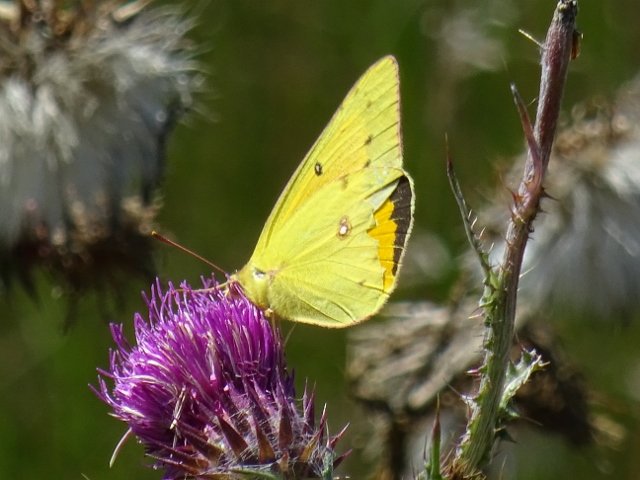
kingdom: Animalia
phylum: Arthropoda
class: Insecta
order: Lepidoptera
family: Pieridae
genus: Colias
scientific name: Colias eurytheme
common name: Orange Sulphur
